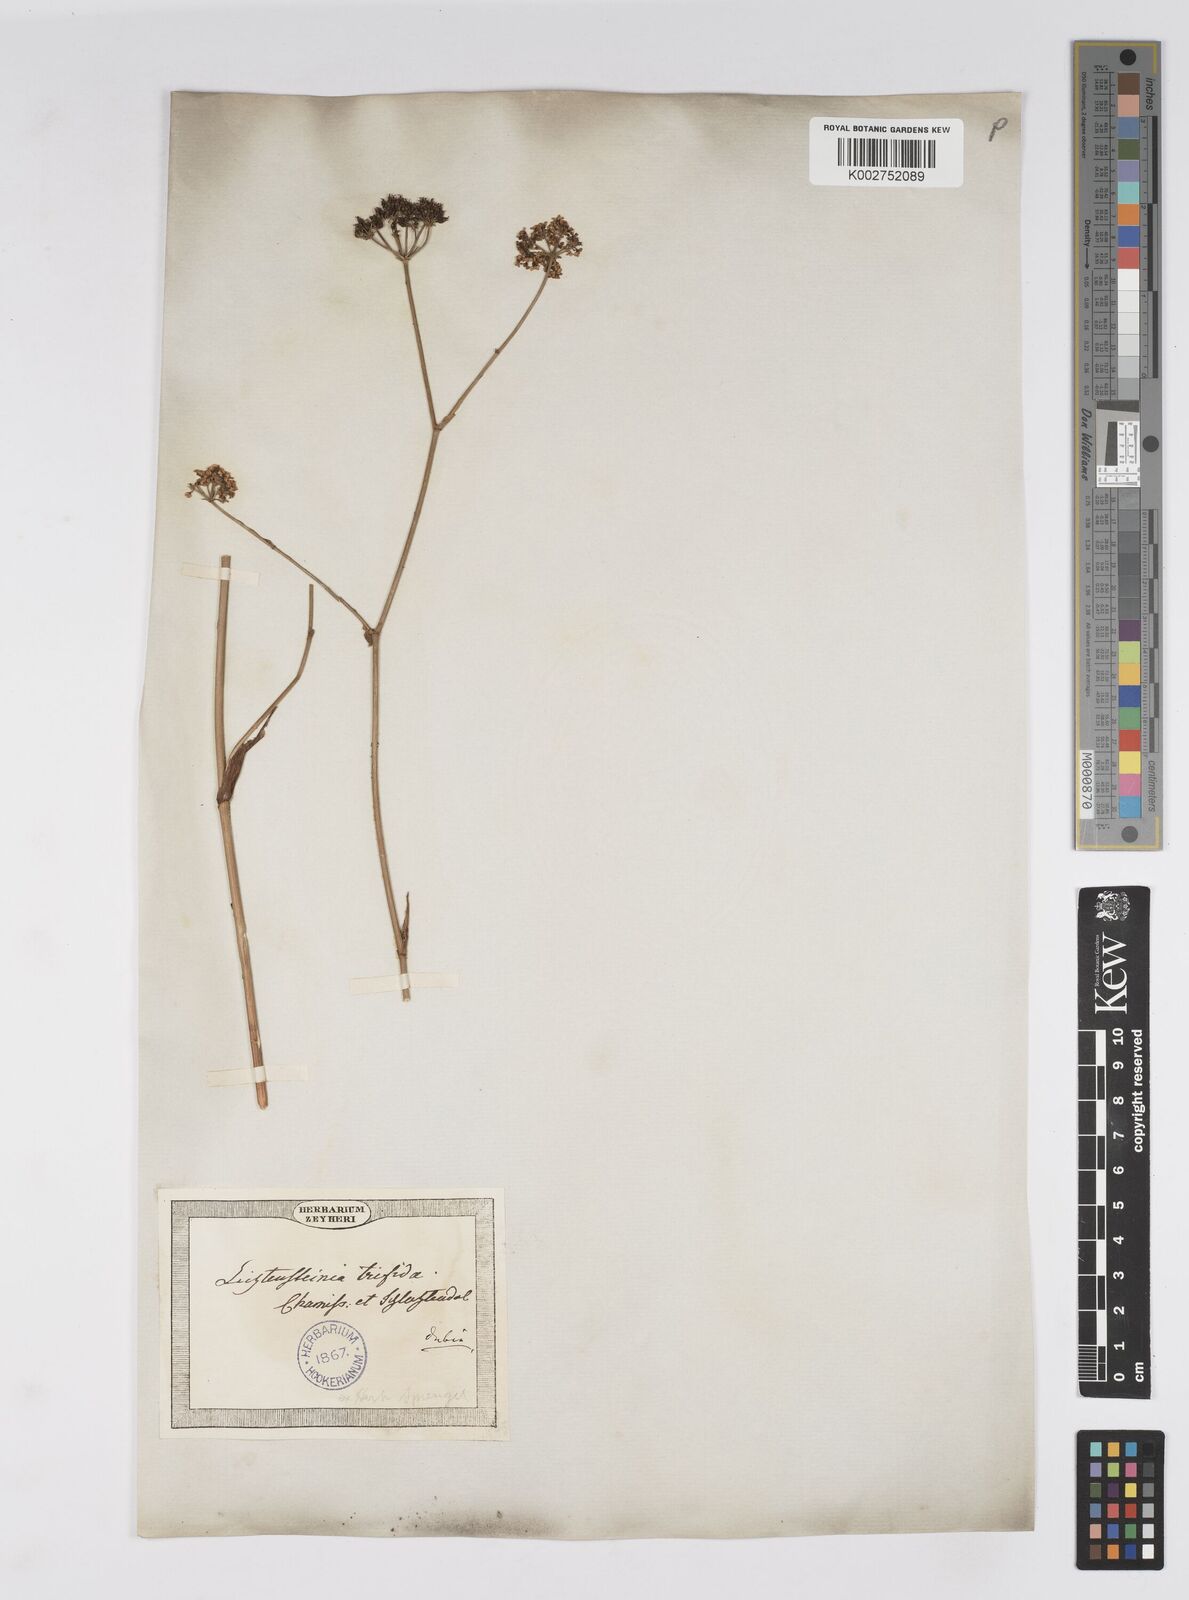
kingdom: Plantae
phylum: Tracheophyta
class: Magnoliopsida
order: Apiales
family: Apiaceae
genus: Lichtensteinia
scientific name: Lichtensteinia trifida
